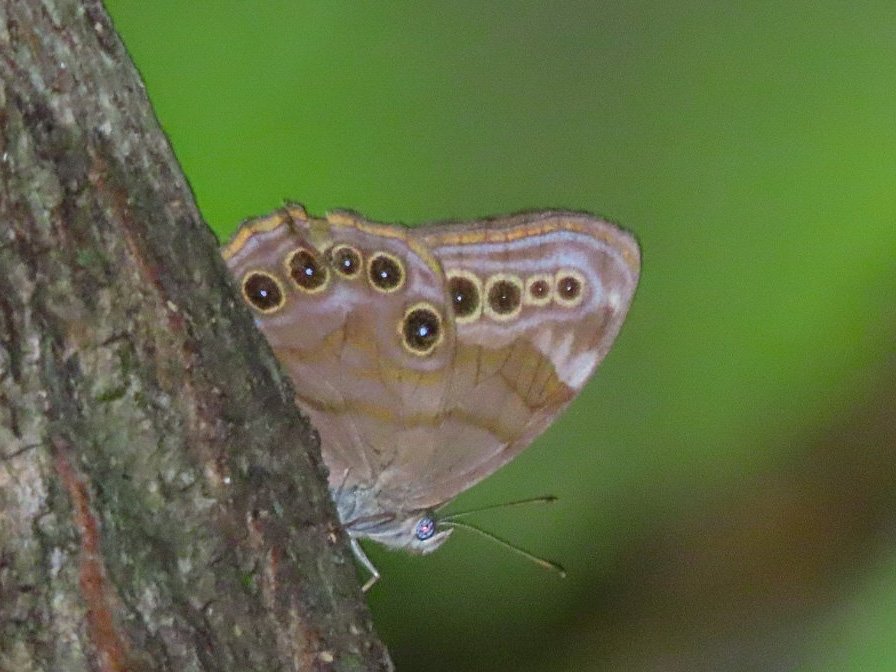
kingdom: Animalia
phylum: Arthropoda
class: Insecta
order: Lepidoptera
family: Nymphalidae
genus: Lethe
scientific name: Lethe anthedon
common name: Northern Pearly-Eye
